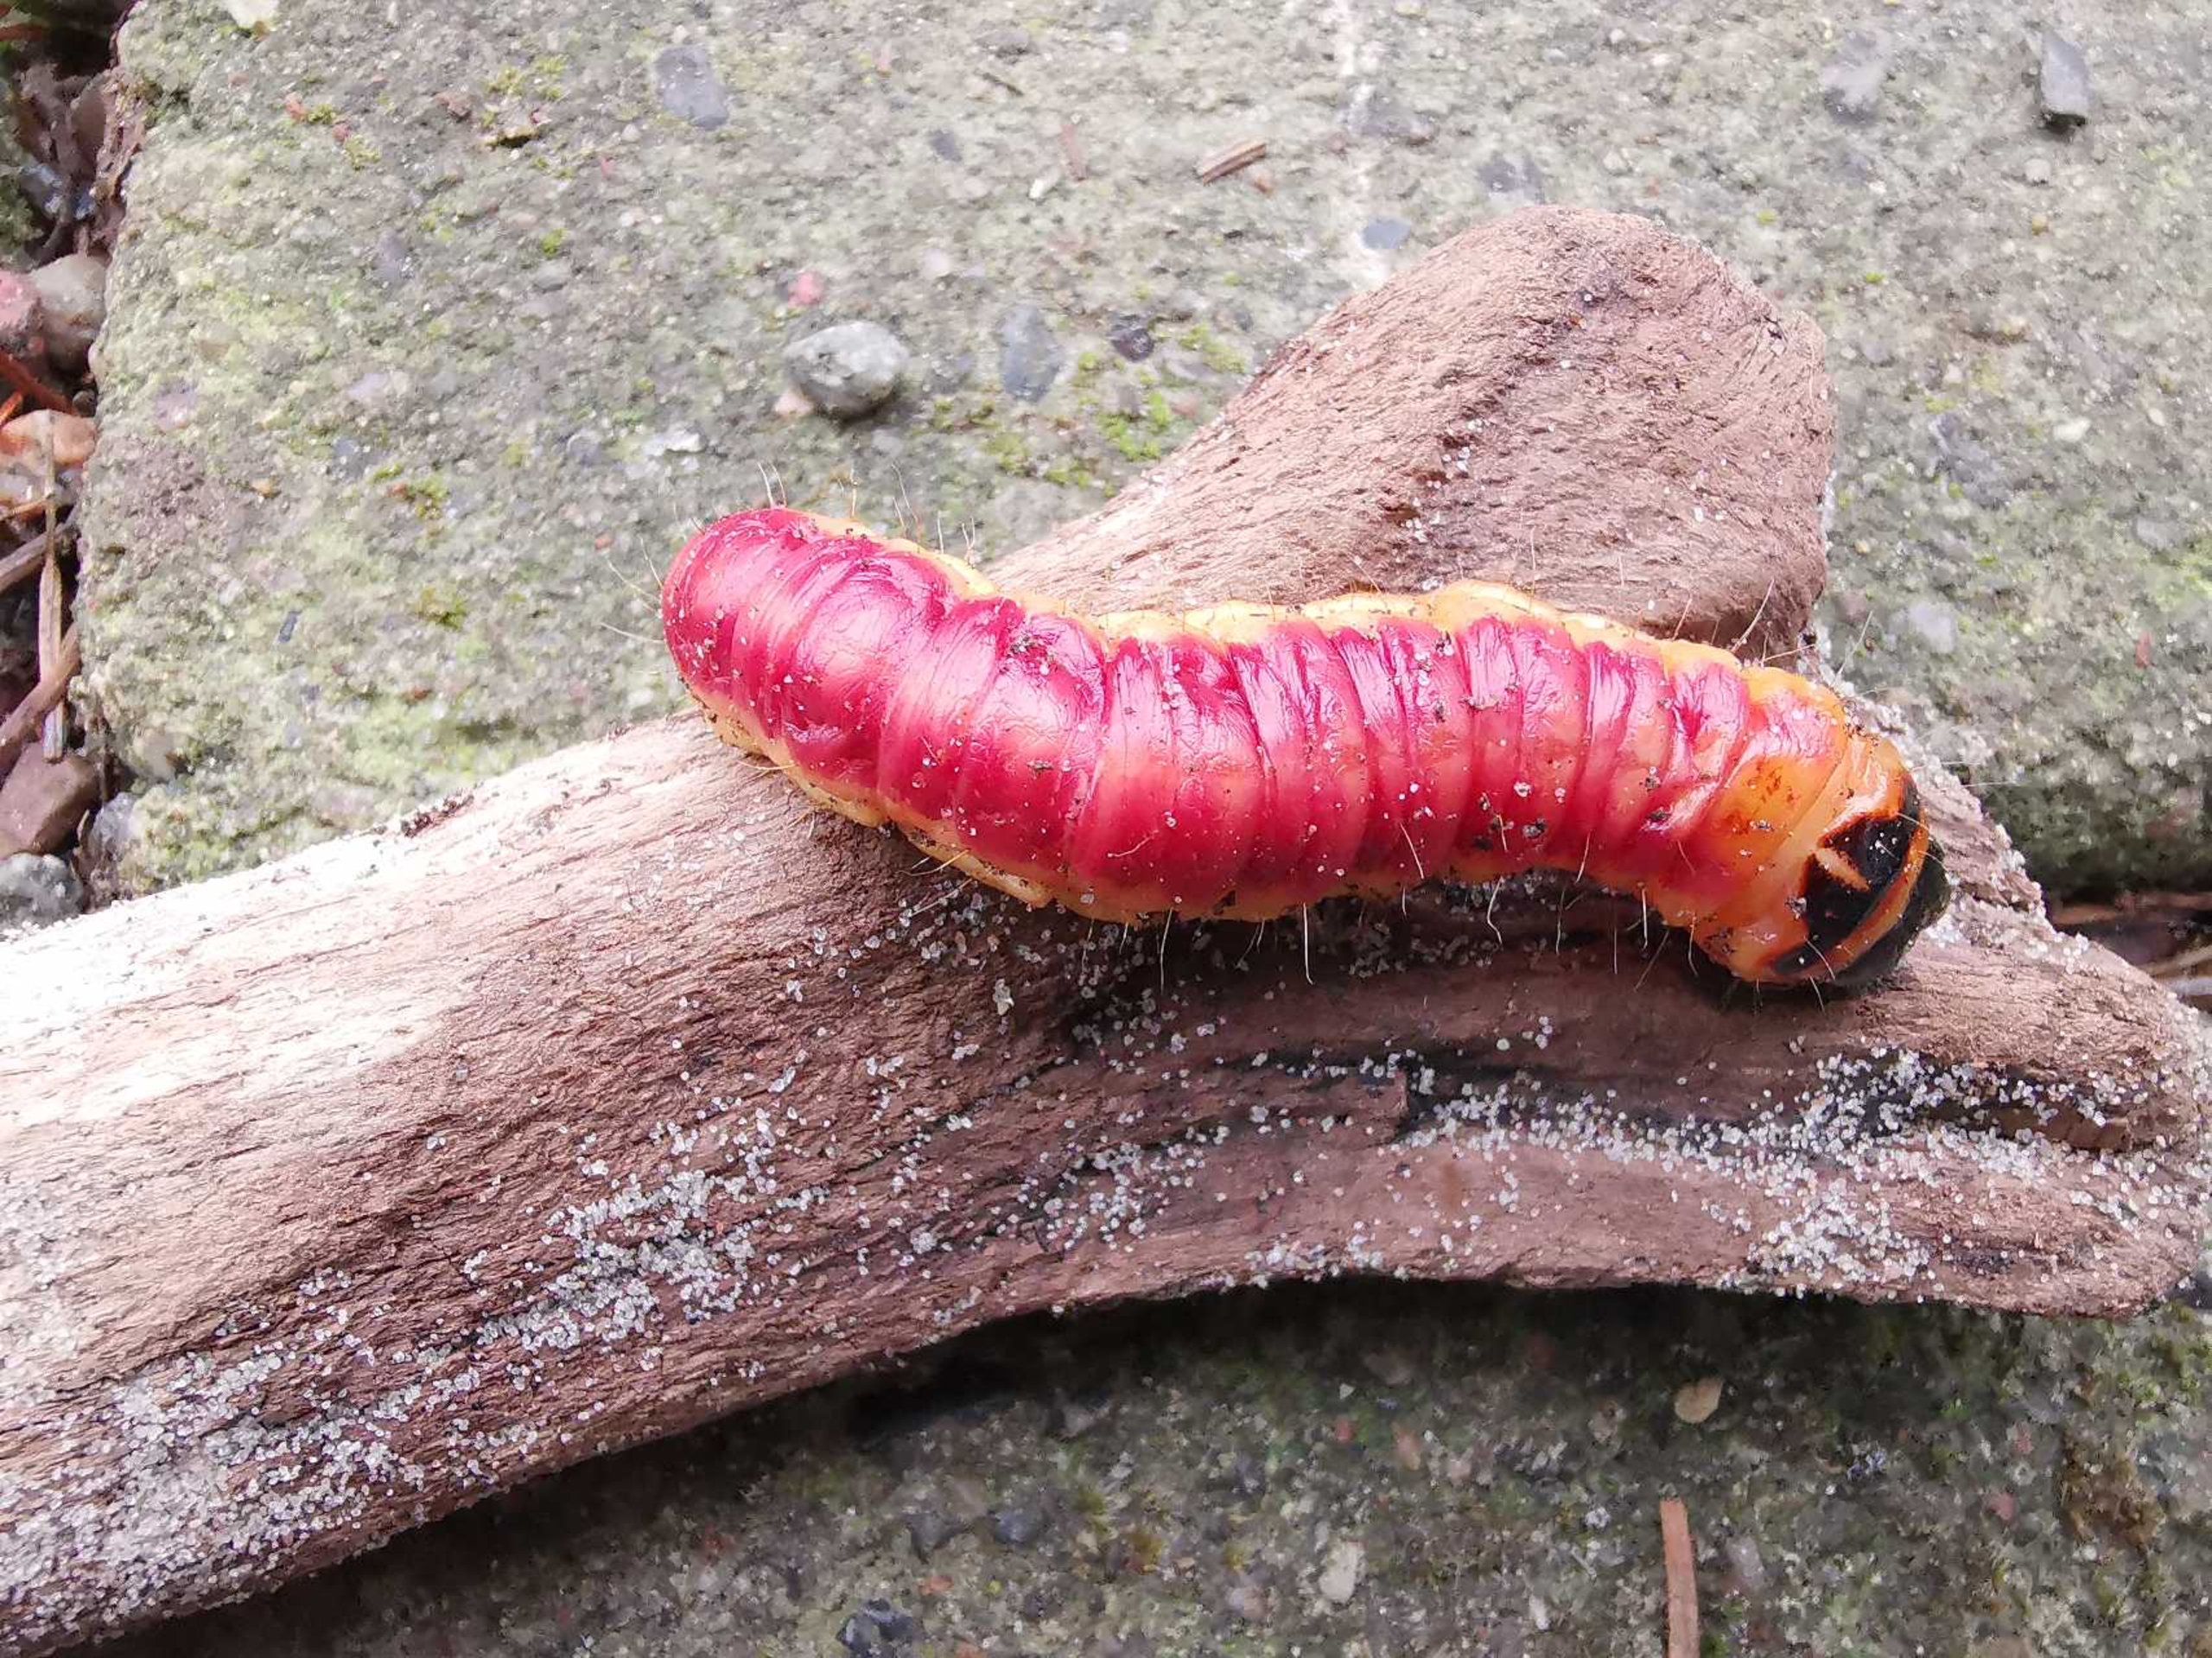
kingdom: Animalia
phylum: Arthropoda
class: Insecta
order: Lepidoptera
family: Cossidae
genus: Cossus
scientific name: Cossus cossus
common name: Pileborer
